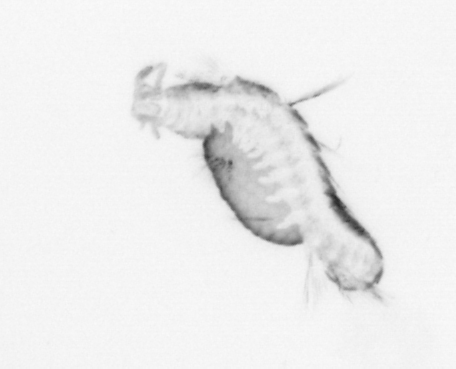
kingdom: Animalia
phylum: Annelida
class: Polychaeta
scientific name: Polychaeta
